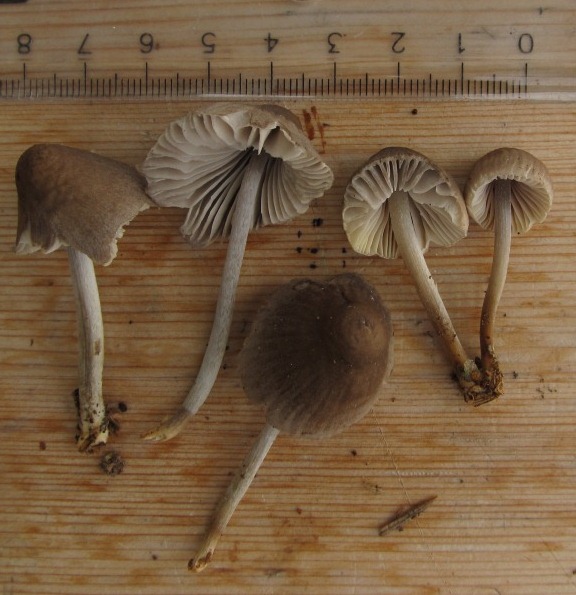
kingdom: Fungi
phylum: Basidiomycota
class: Agaricomycetes
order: Agaricales
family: Mycenaceae
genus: Mycena
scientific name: Mycena inclinata
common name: nikkende huesvamp
